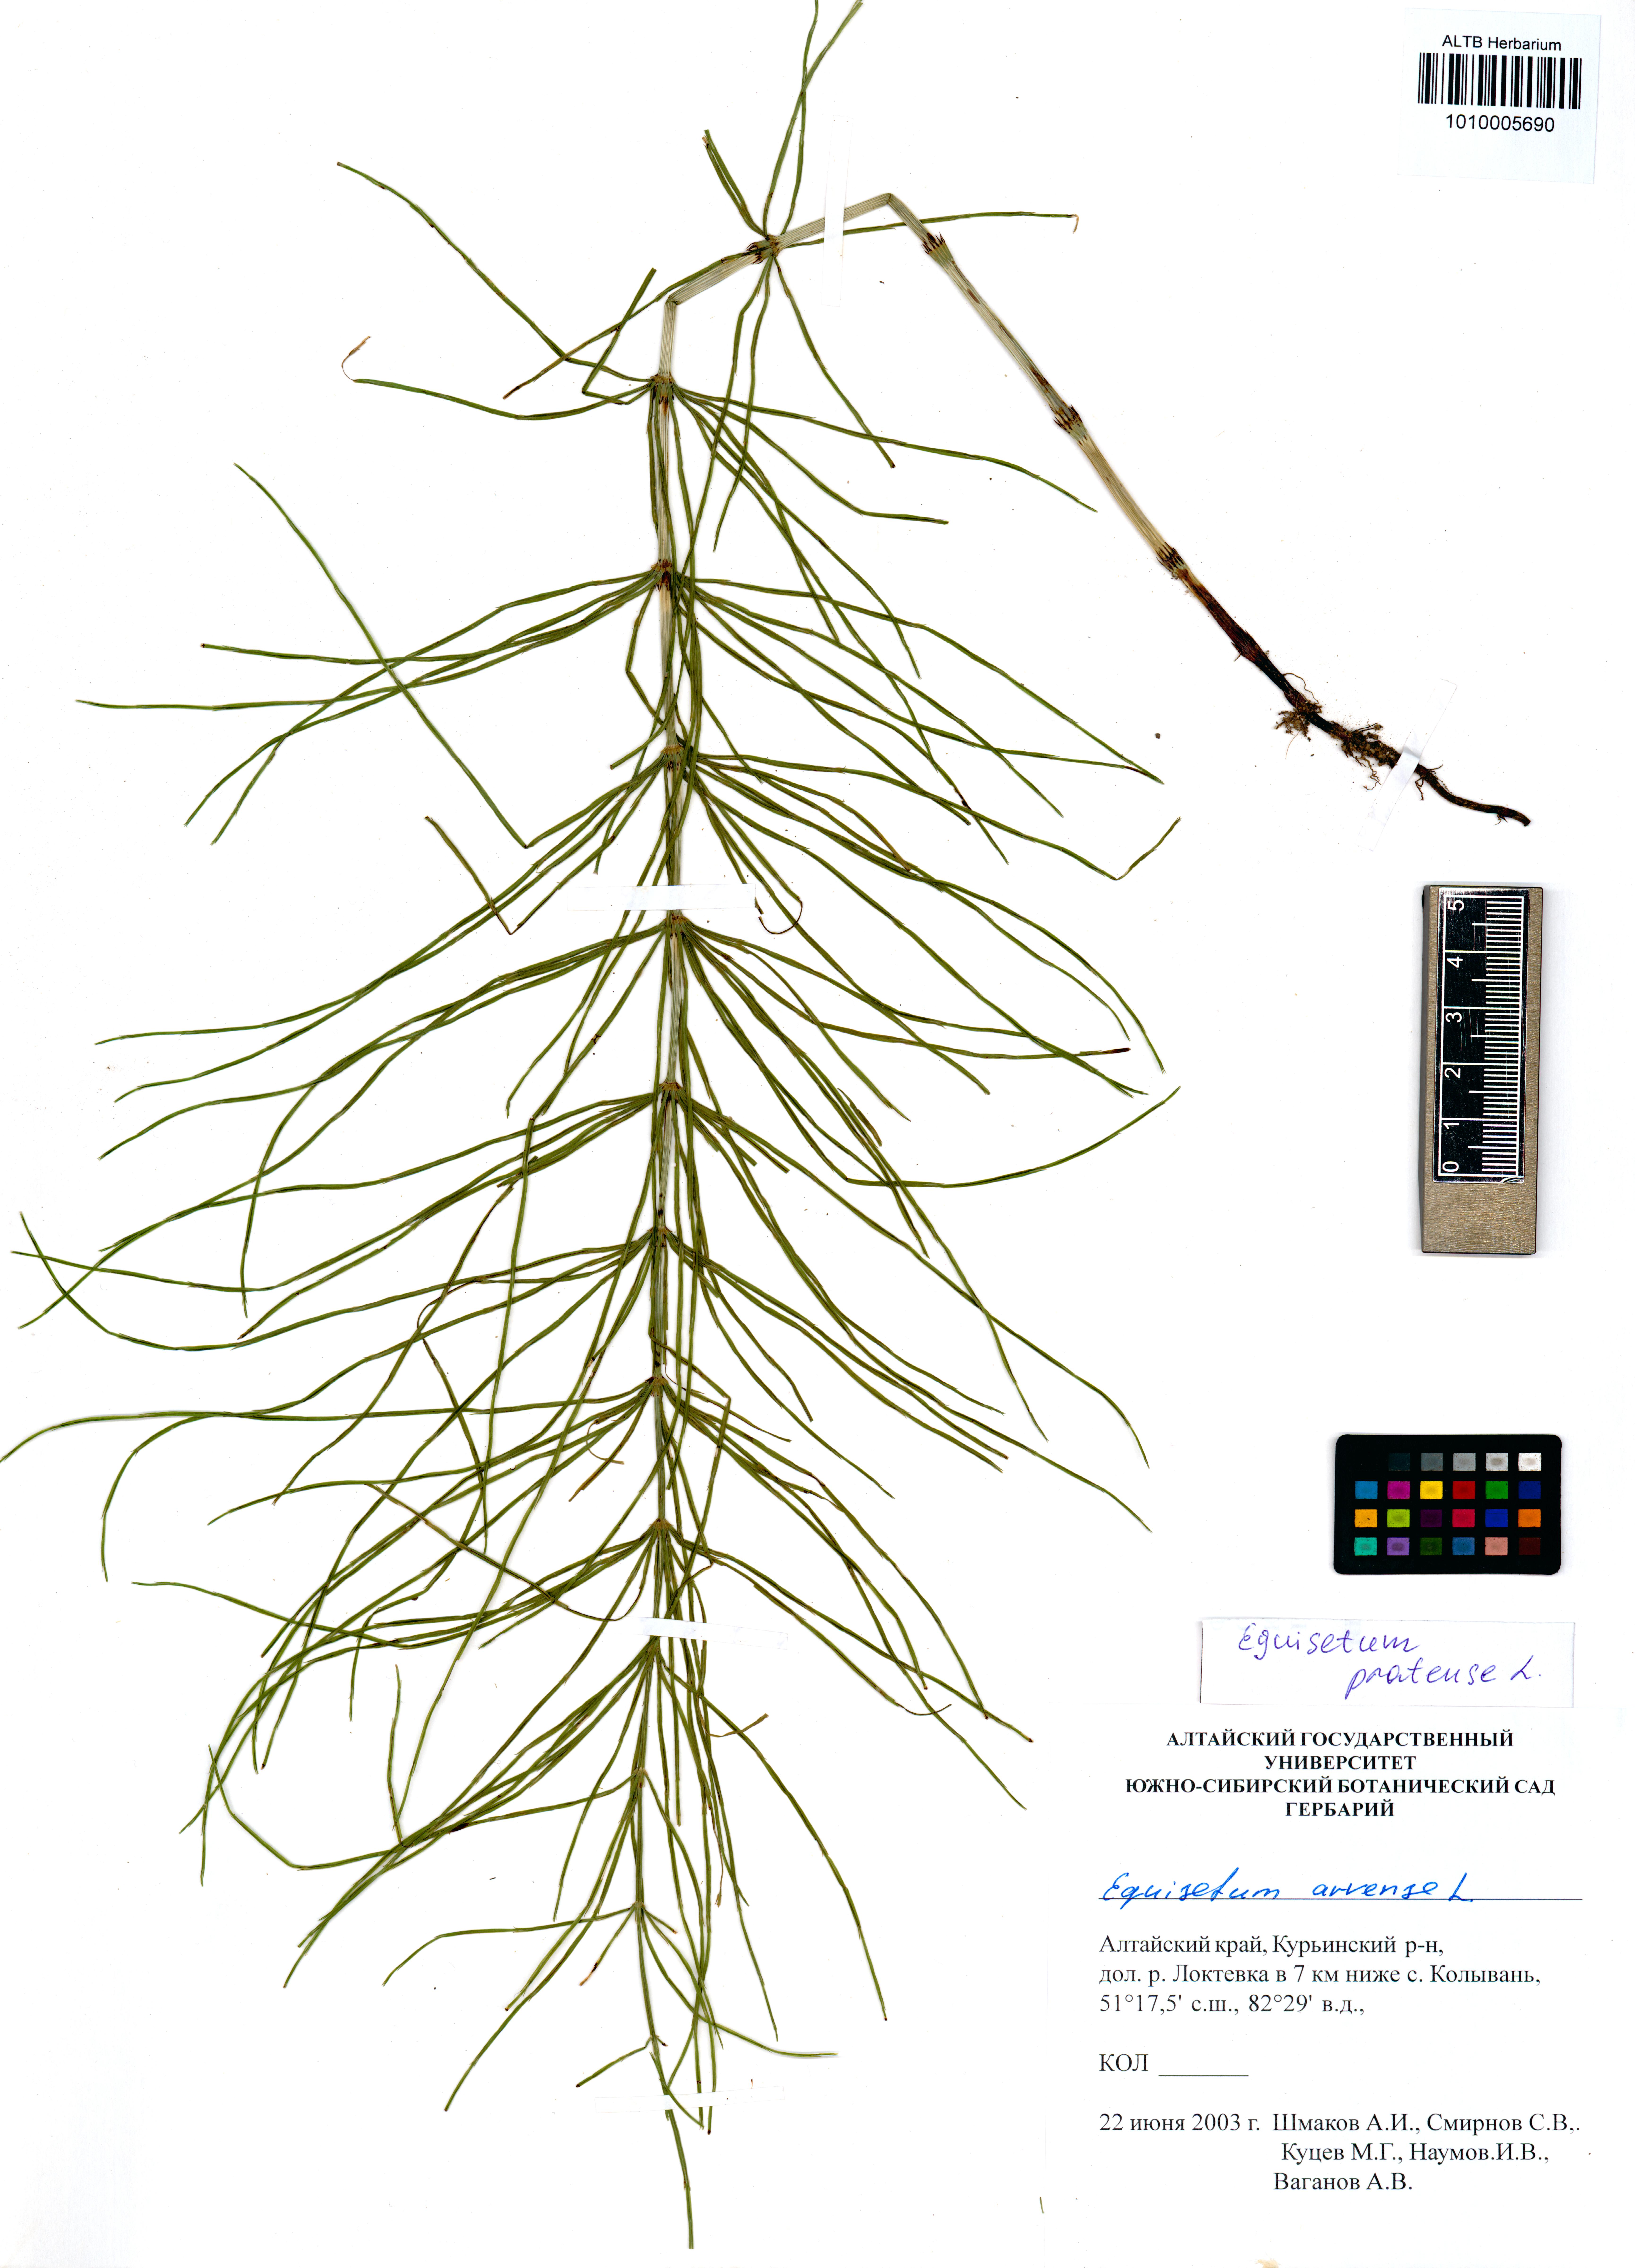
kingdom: Plantae
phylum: Tracheophyta
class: Polypodiopsida
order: Equisetales
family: Equisetaceae
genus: Equisetum
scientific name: Equisetum pratense
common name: Meadow horsetail
